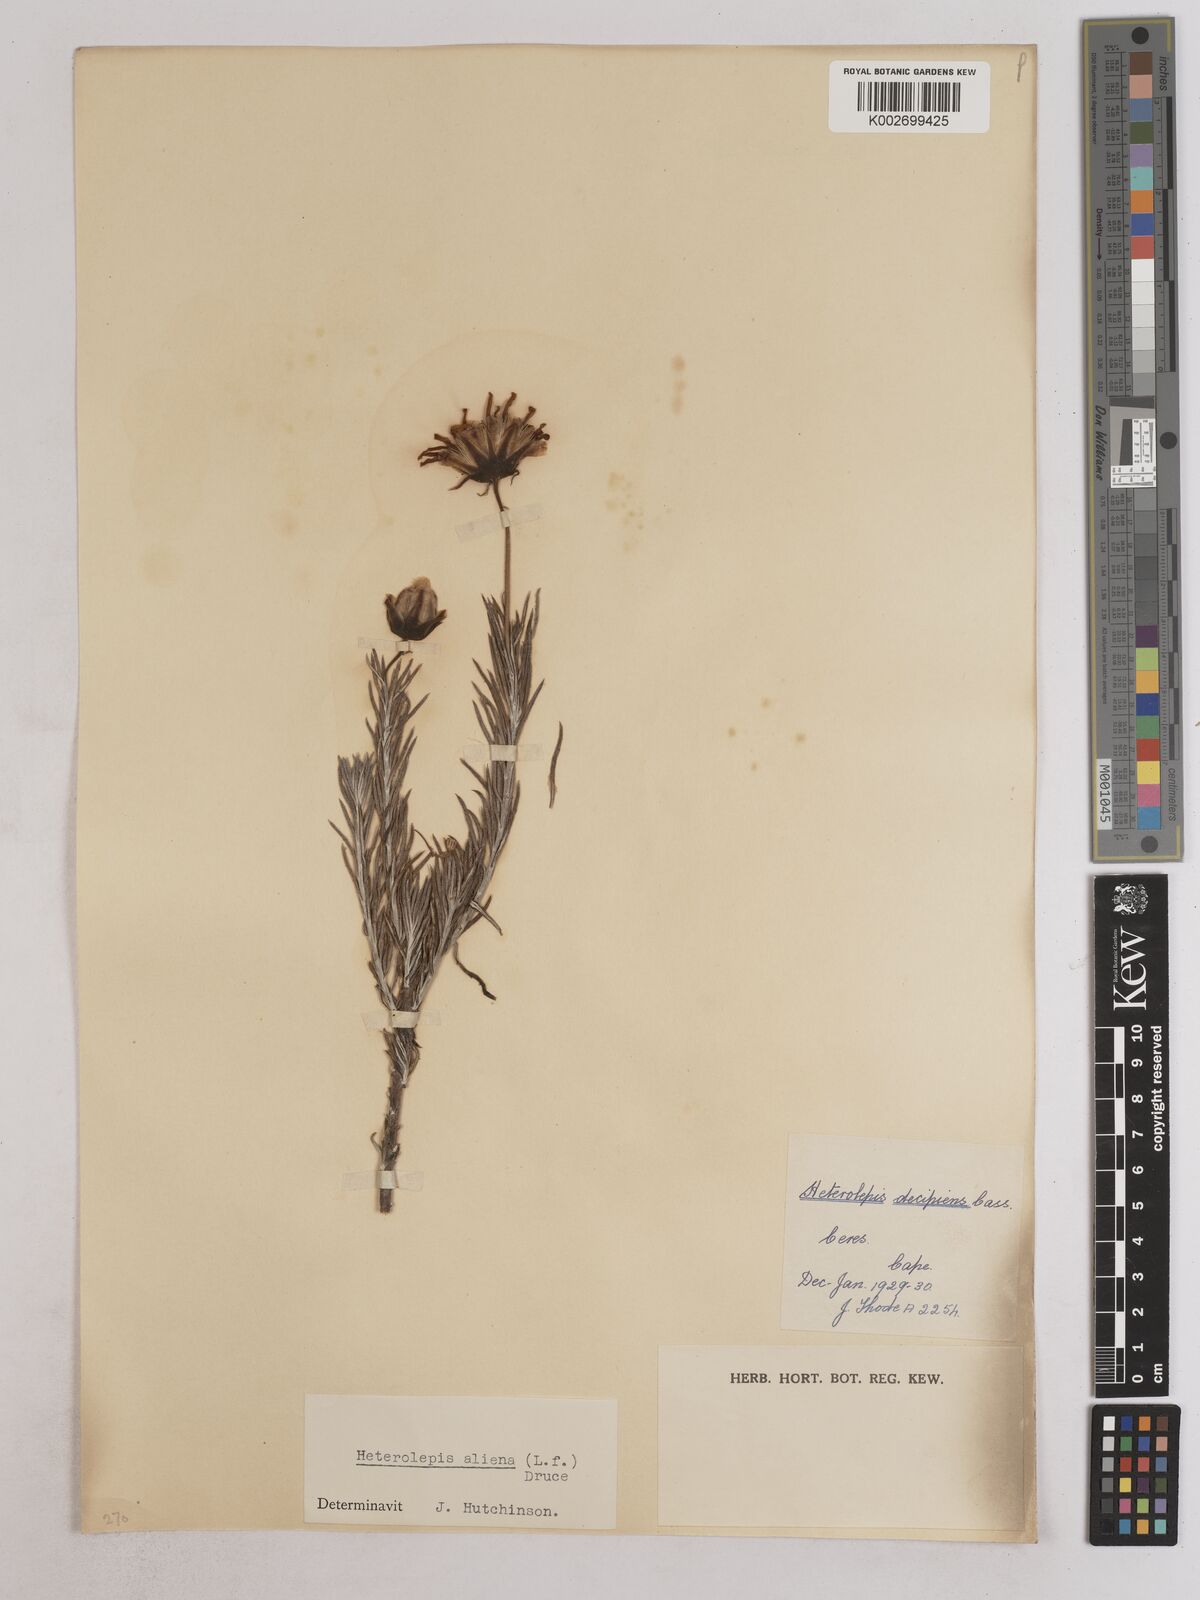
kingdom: Plantae
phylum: Tracheophyta
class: Magnoliopsida
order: Asterales
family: Asteraceae
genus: Heterolepis
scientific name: Heterolepis aliena
